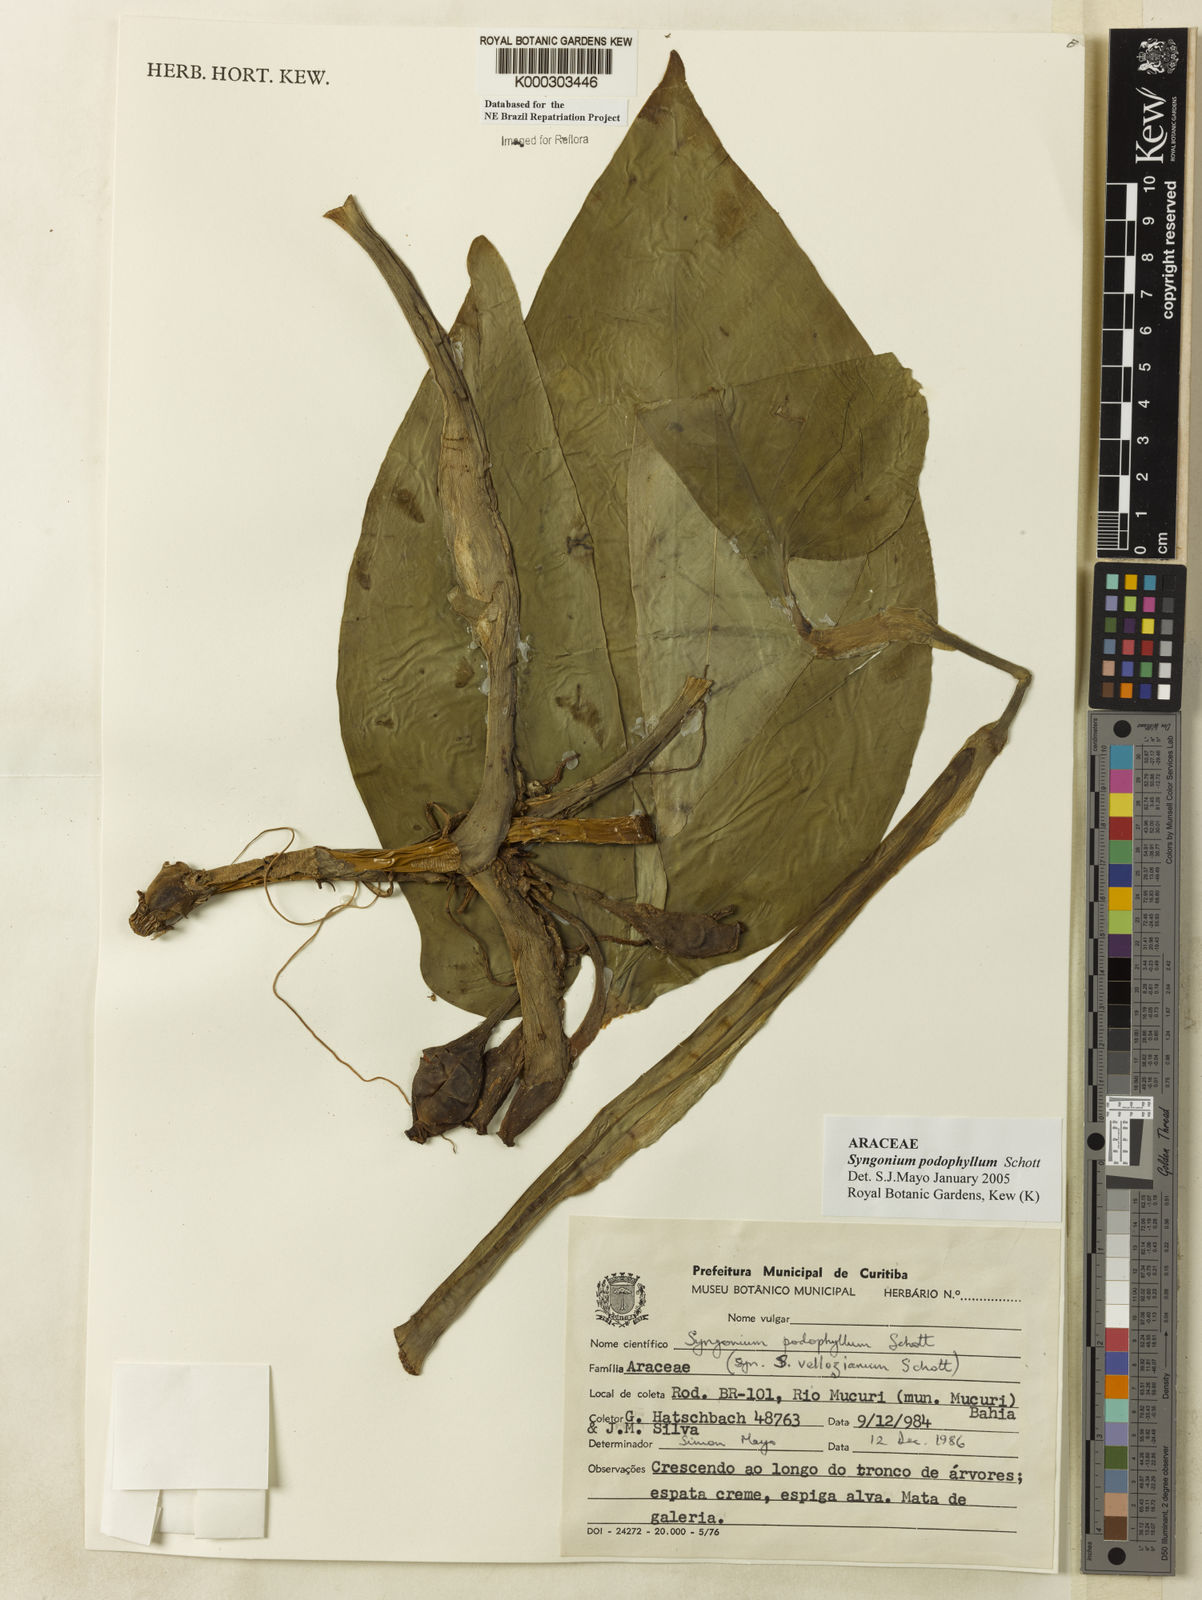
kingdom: Plantae
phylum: Tracheophyta
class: Liliopsida
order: Alismatales
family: Araceae
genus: Syngonium
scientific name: Syngonium podophyllum
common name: American evergreen
